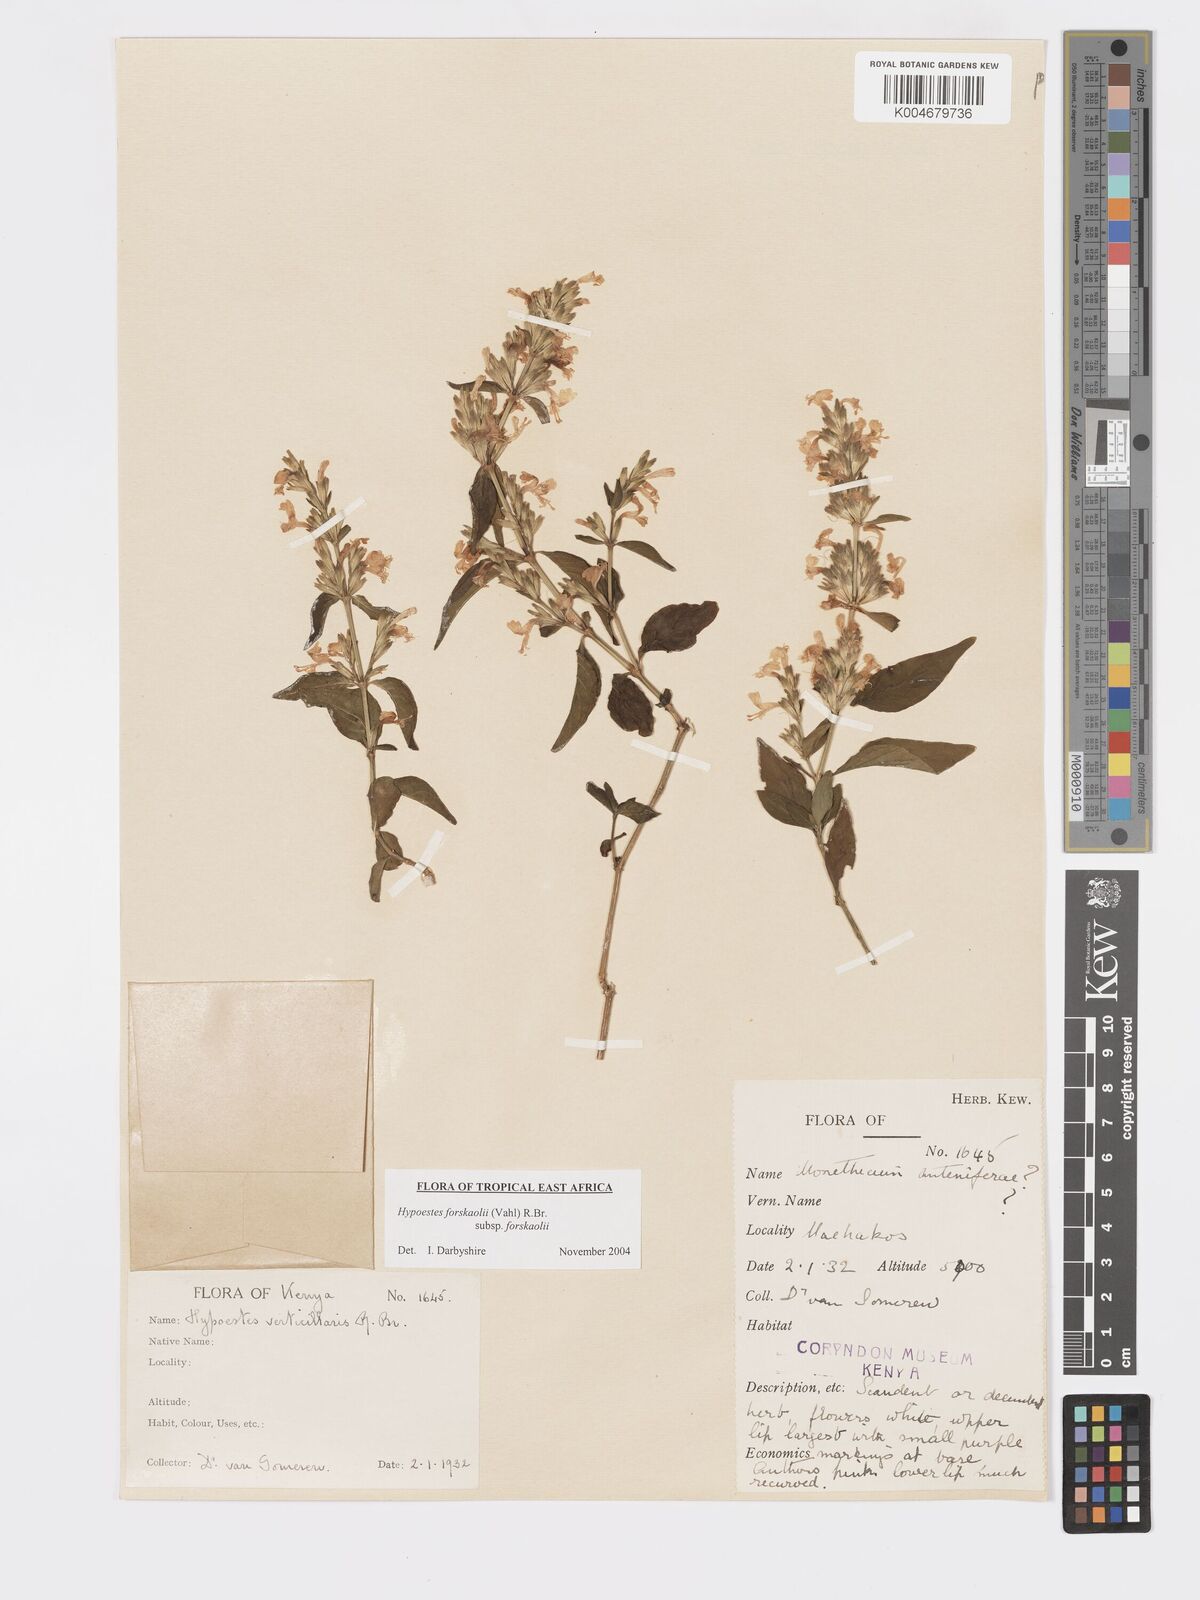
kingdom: Plantae
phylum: Tracheophyta
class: Magnoliopsida
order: Lamiales
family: Acanthaceae
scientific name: Acanthaceae
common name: Acanthaceae
